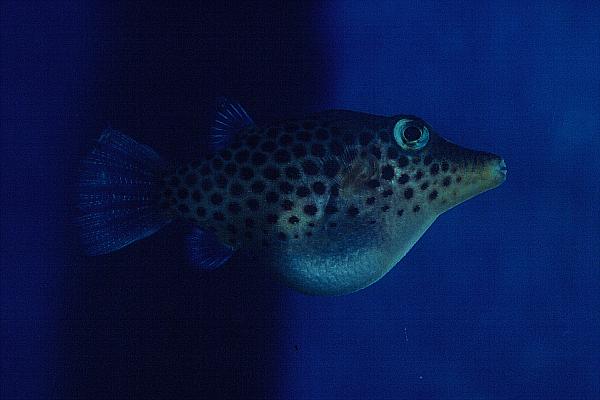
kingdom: Animalia
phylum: Chordata
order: Tetraodontiformes
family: Tetraodontidae
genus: Canthigaster
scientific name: Canthigaster tyleri
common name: Tyler's toby
